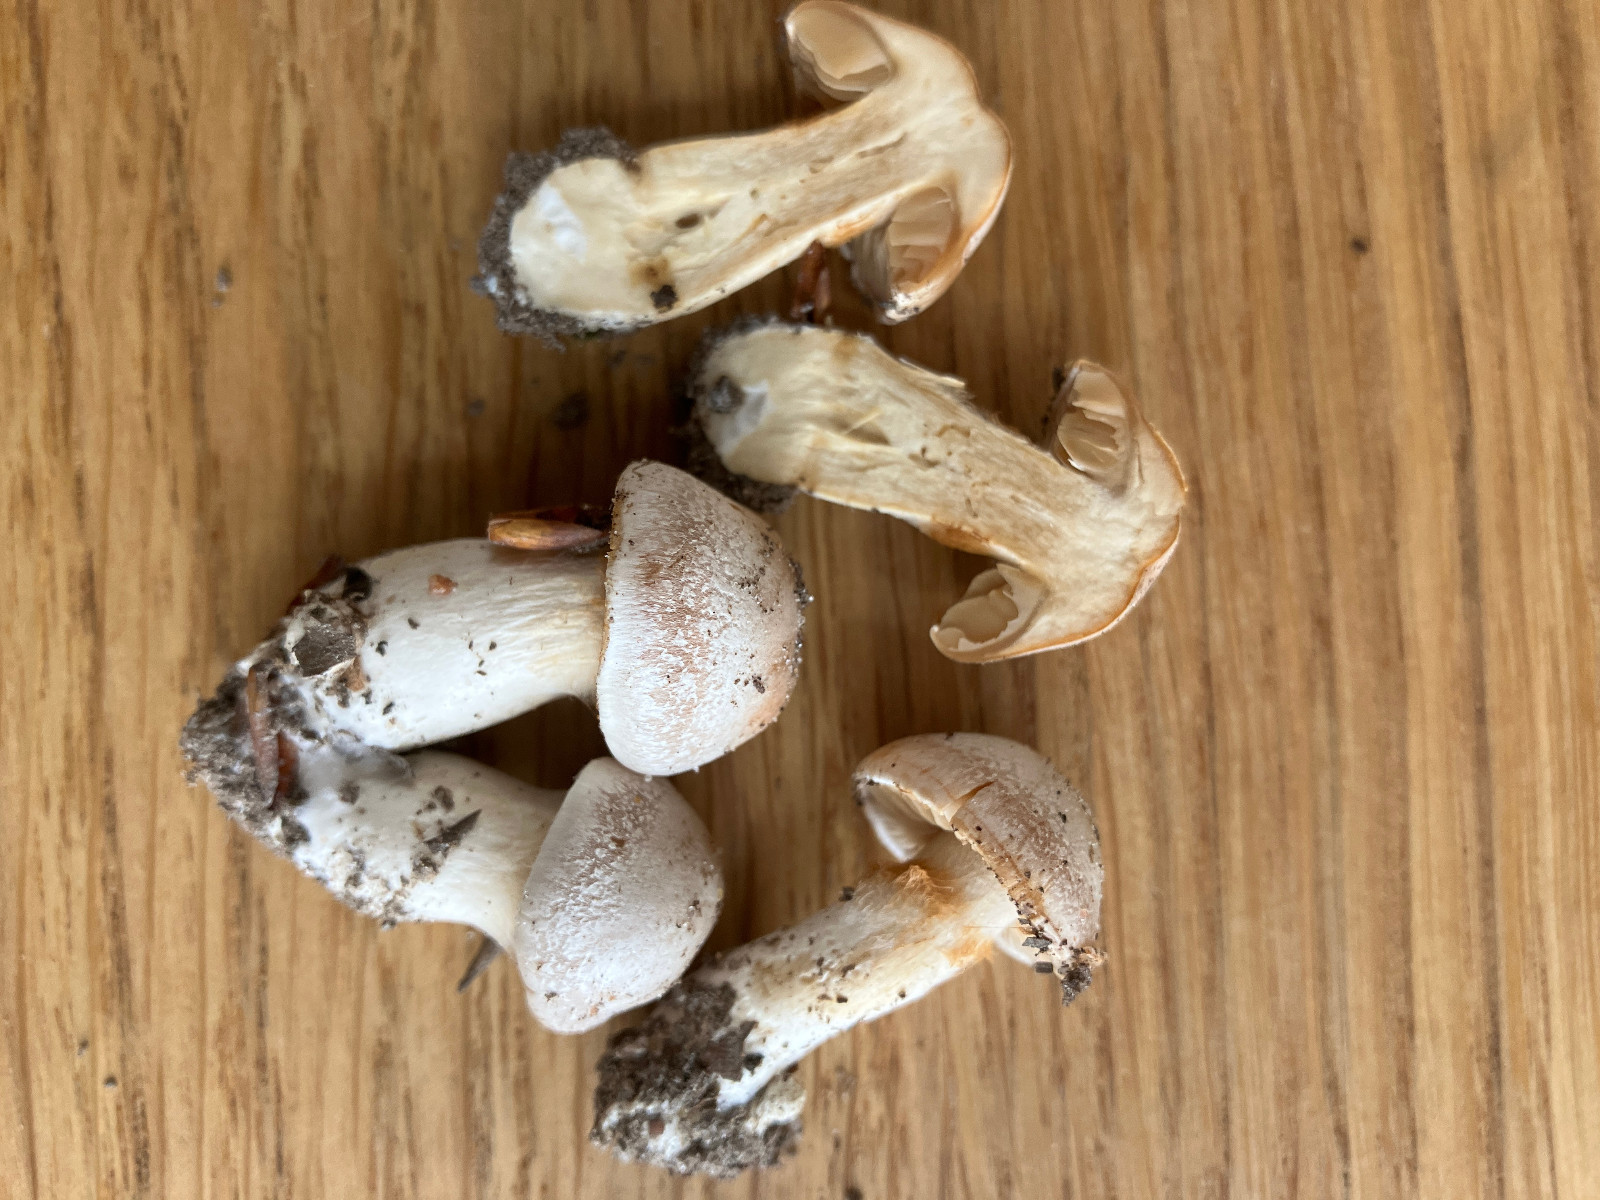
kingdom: Fungi
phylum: Basidiomycota
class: Agaricomycetes
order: Agaricales
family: Cortinariaceae
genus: Cortinarius
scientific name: Cortinarius
